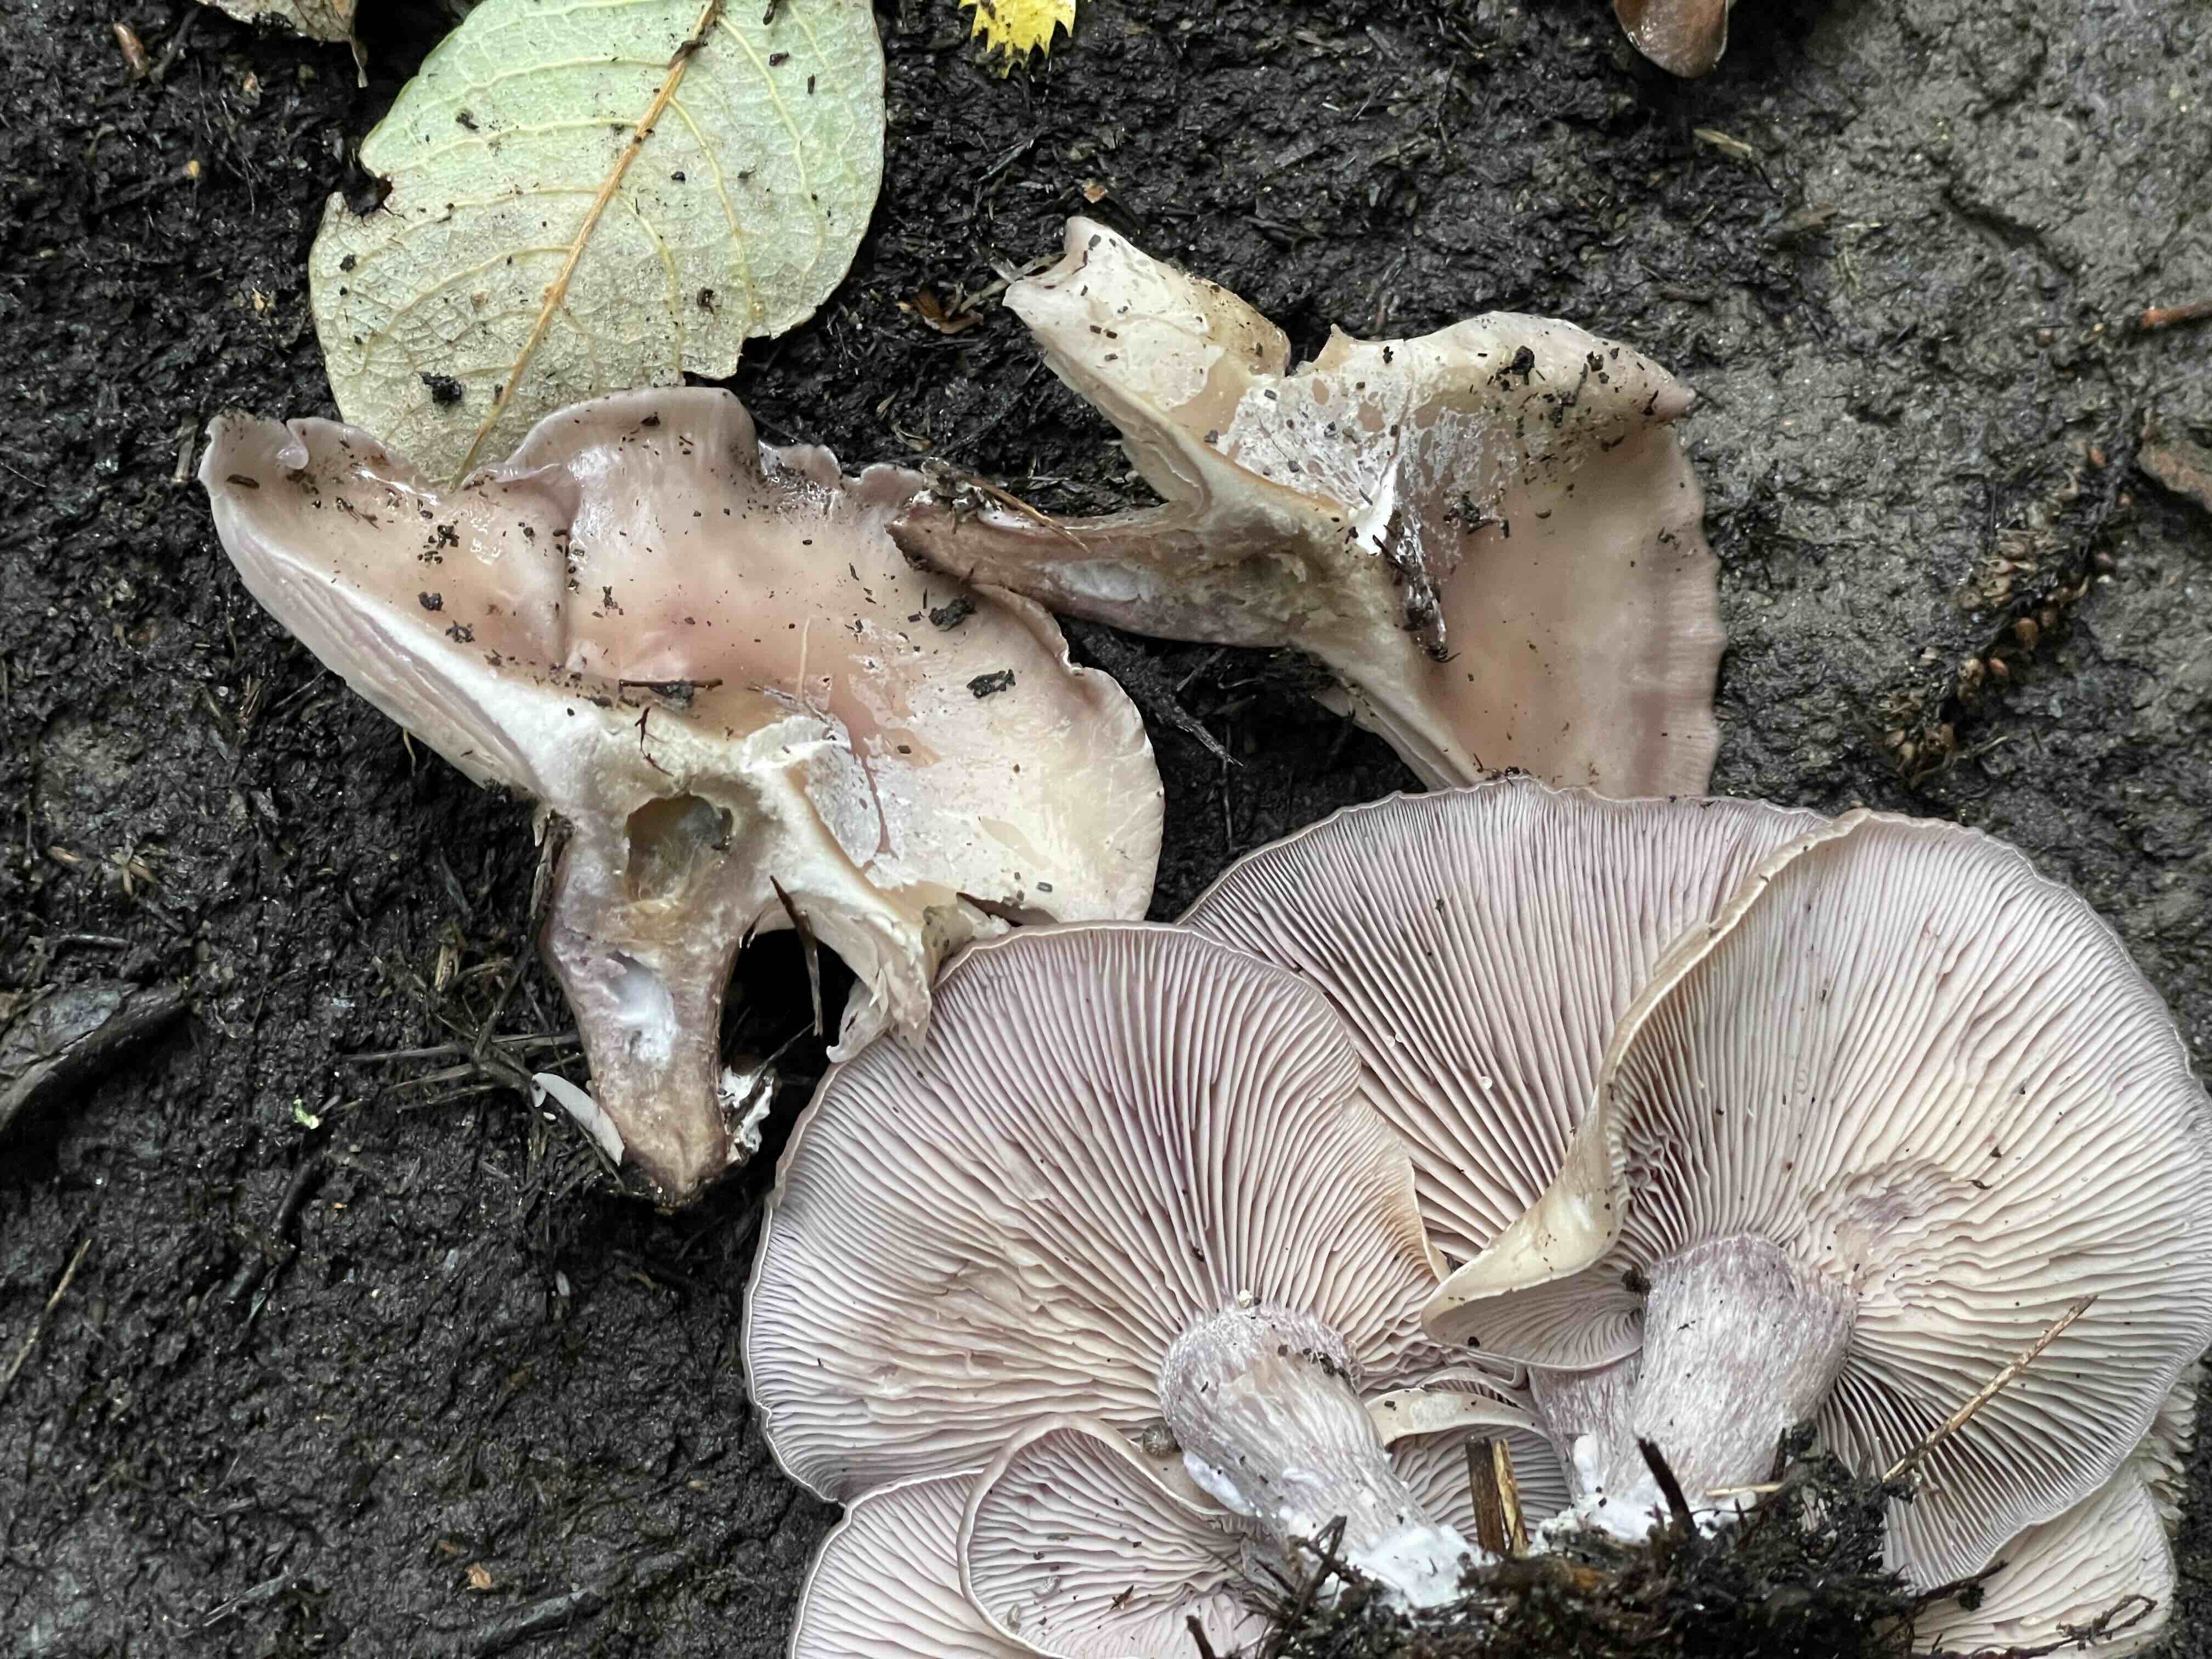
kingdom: Fungi
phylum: Basidiomycota
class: Agaricomycetes
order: Agaricales
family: Tricholomataceae
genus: Lepista
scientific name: Lepista
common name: hekseringshat
